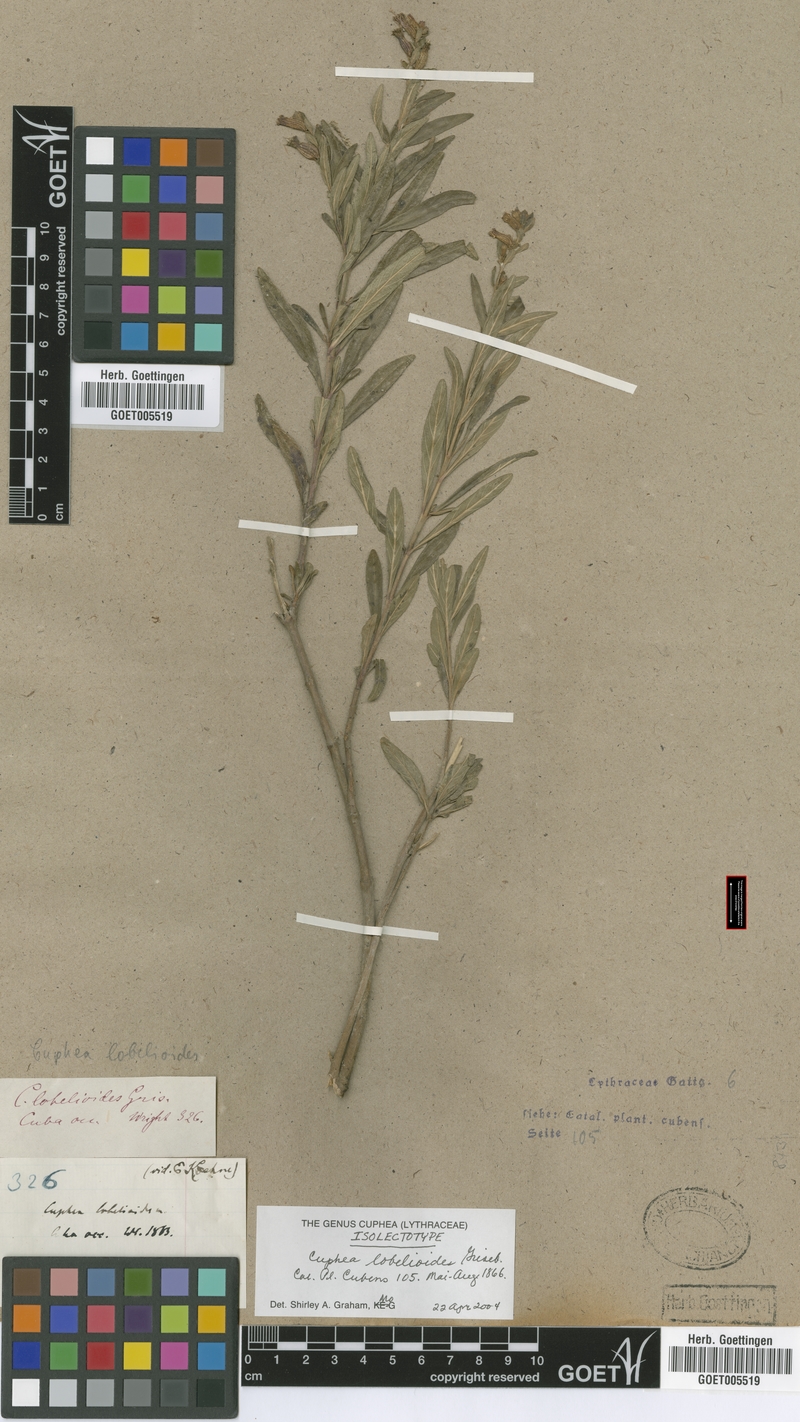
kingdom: Plantae
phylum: Tracheophyta
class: Magnoliopsida
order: Myrtales
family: Lythraceae
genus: Cuphea
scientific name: Cuphea lobelioides
